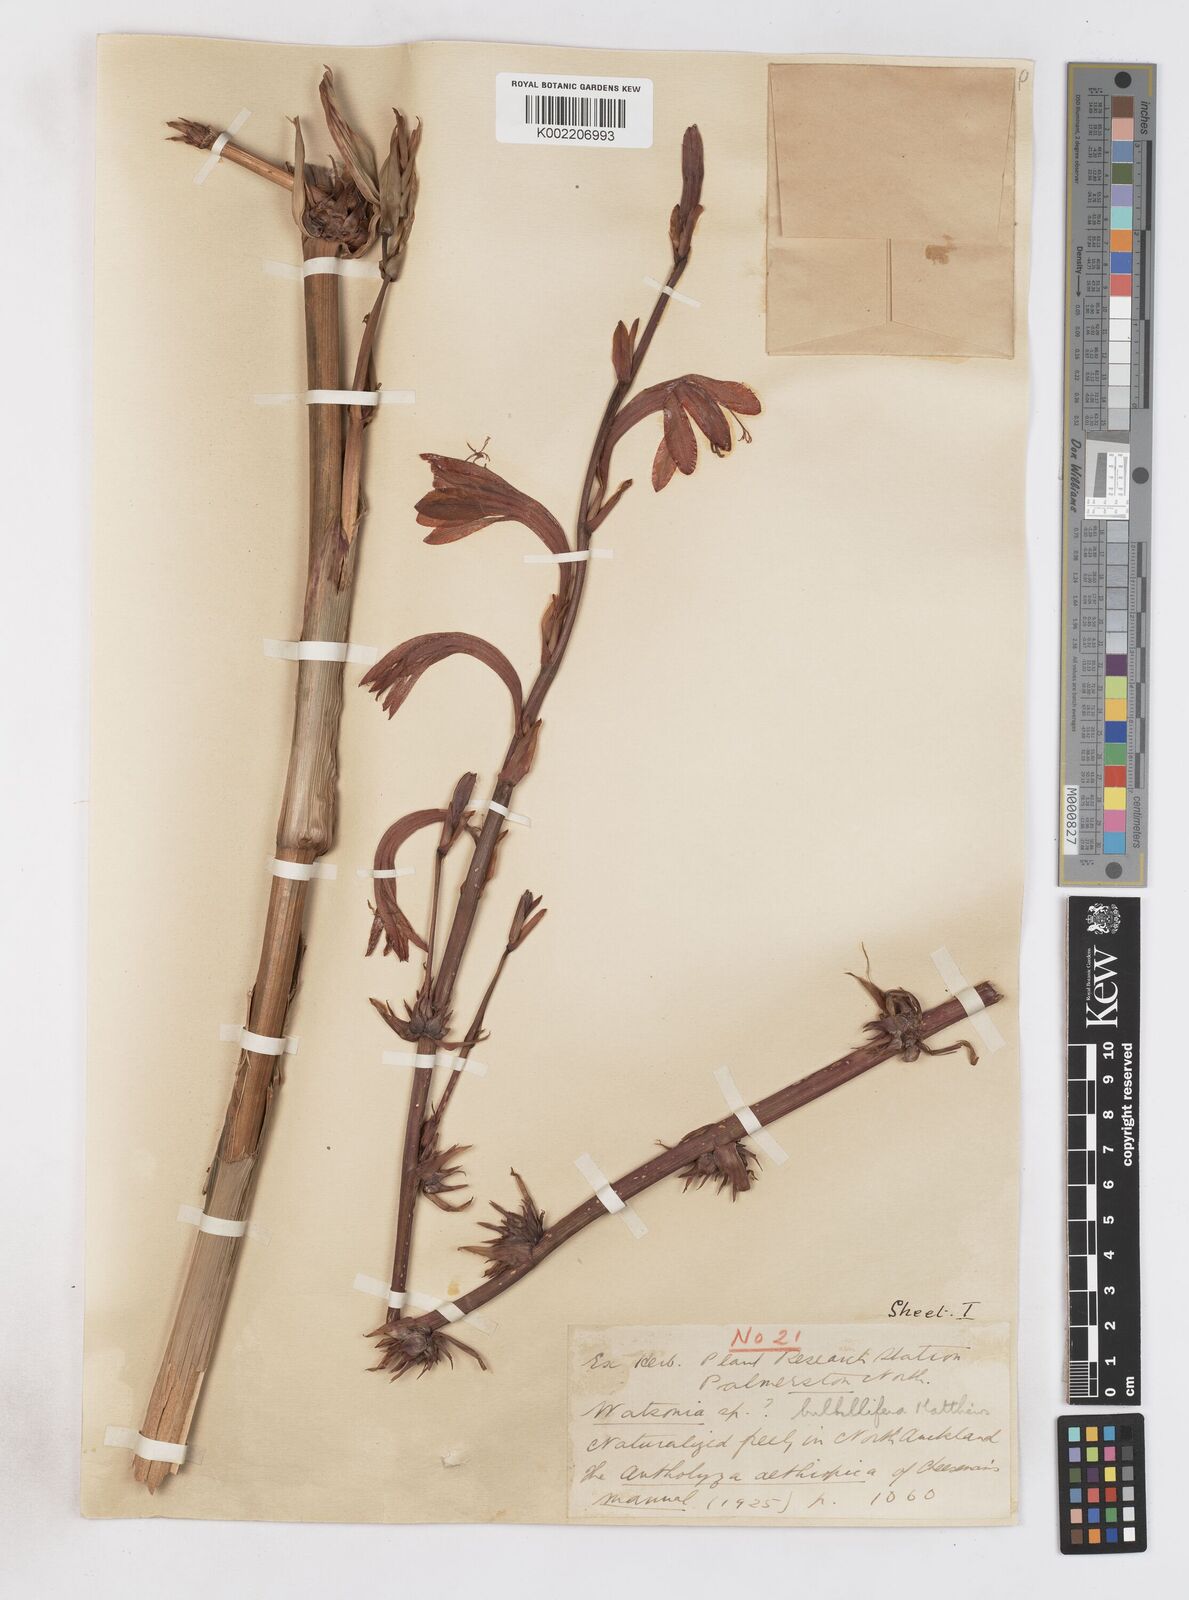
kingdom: Plantae
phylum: Tracheophyta
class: Liliopsida
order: Asparagales
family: Iridaceae
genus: Watsonia
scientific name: Watsonia meriana
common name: Bulbil bugle-lily
